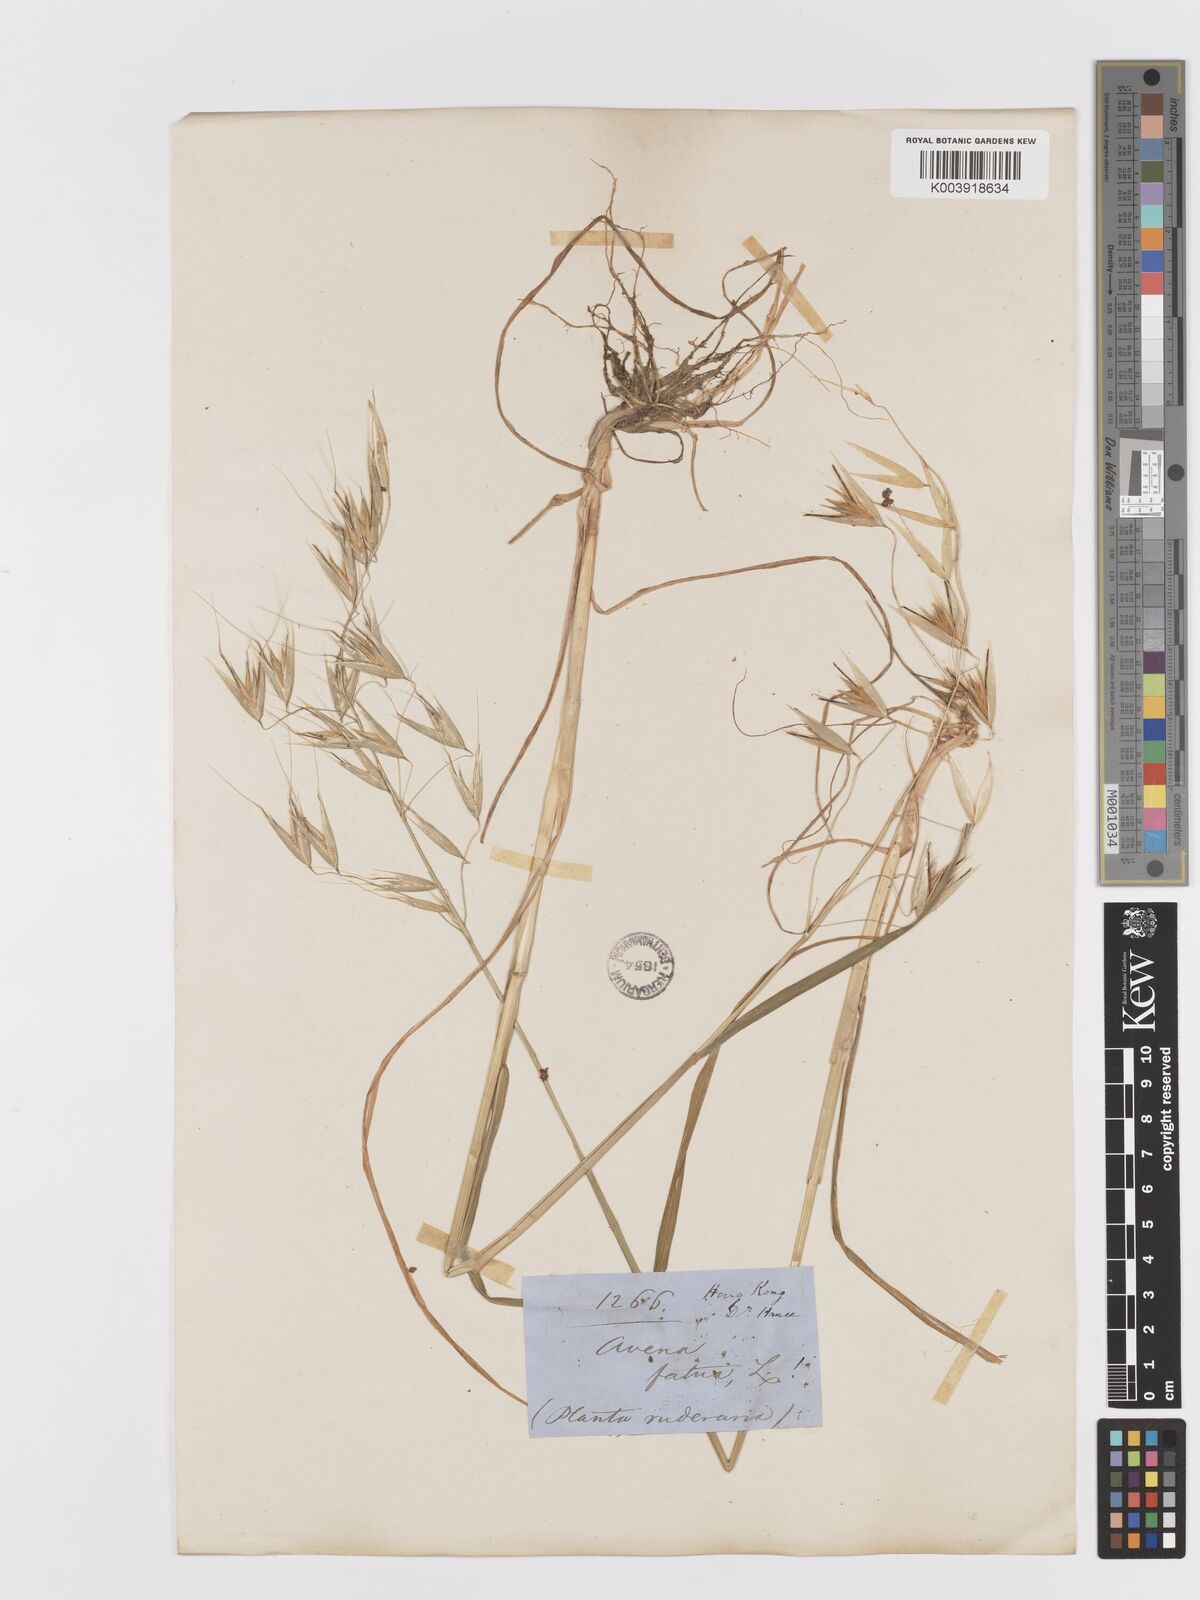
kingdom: Plantae
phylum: Tracheophyta
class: Liliopsida
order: Poales
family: Poaceae
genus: Avena
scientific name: Avena fatua
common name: Wild oat
